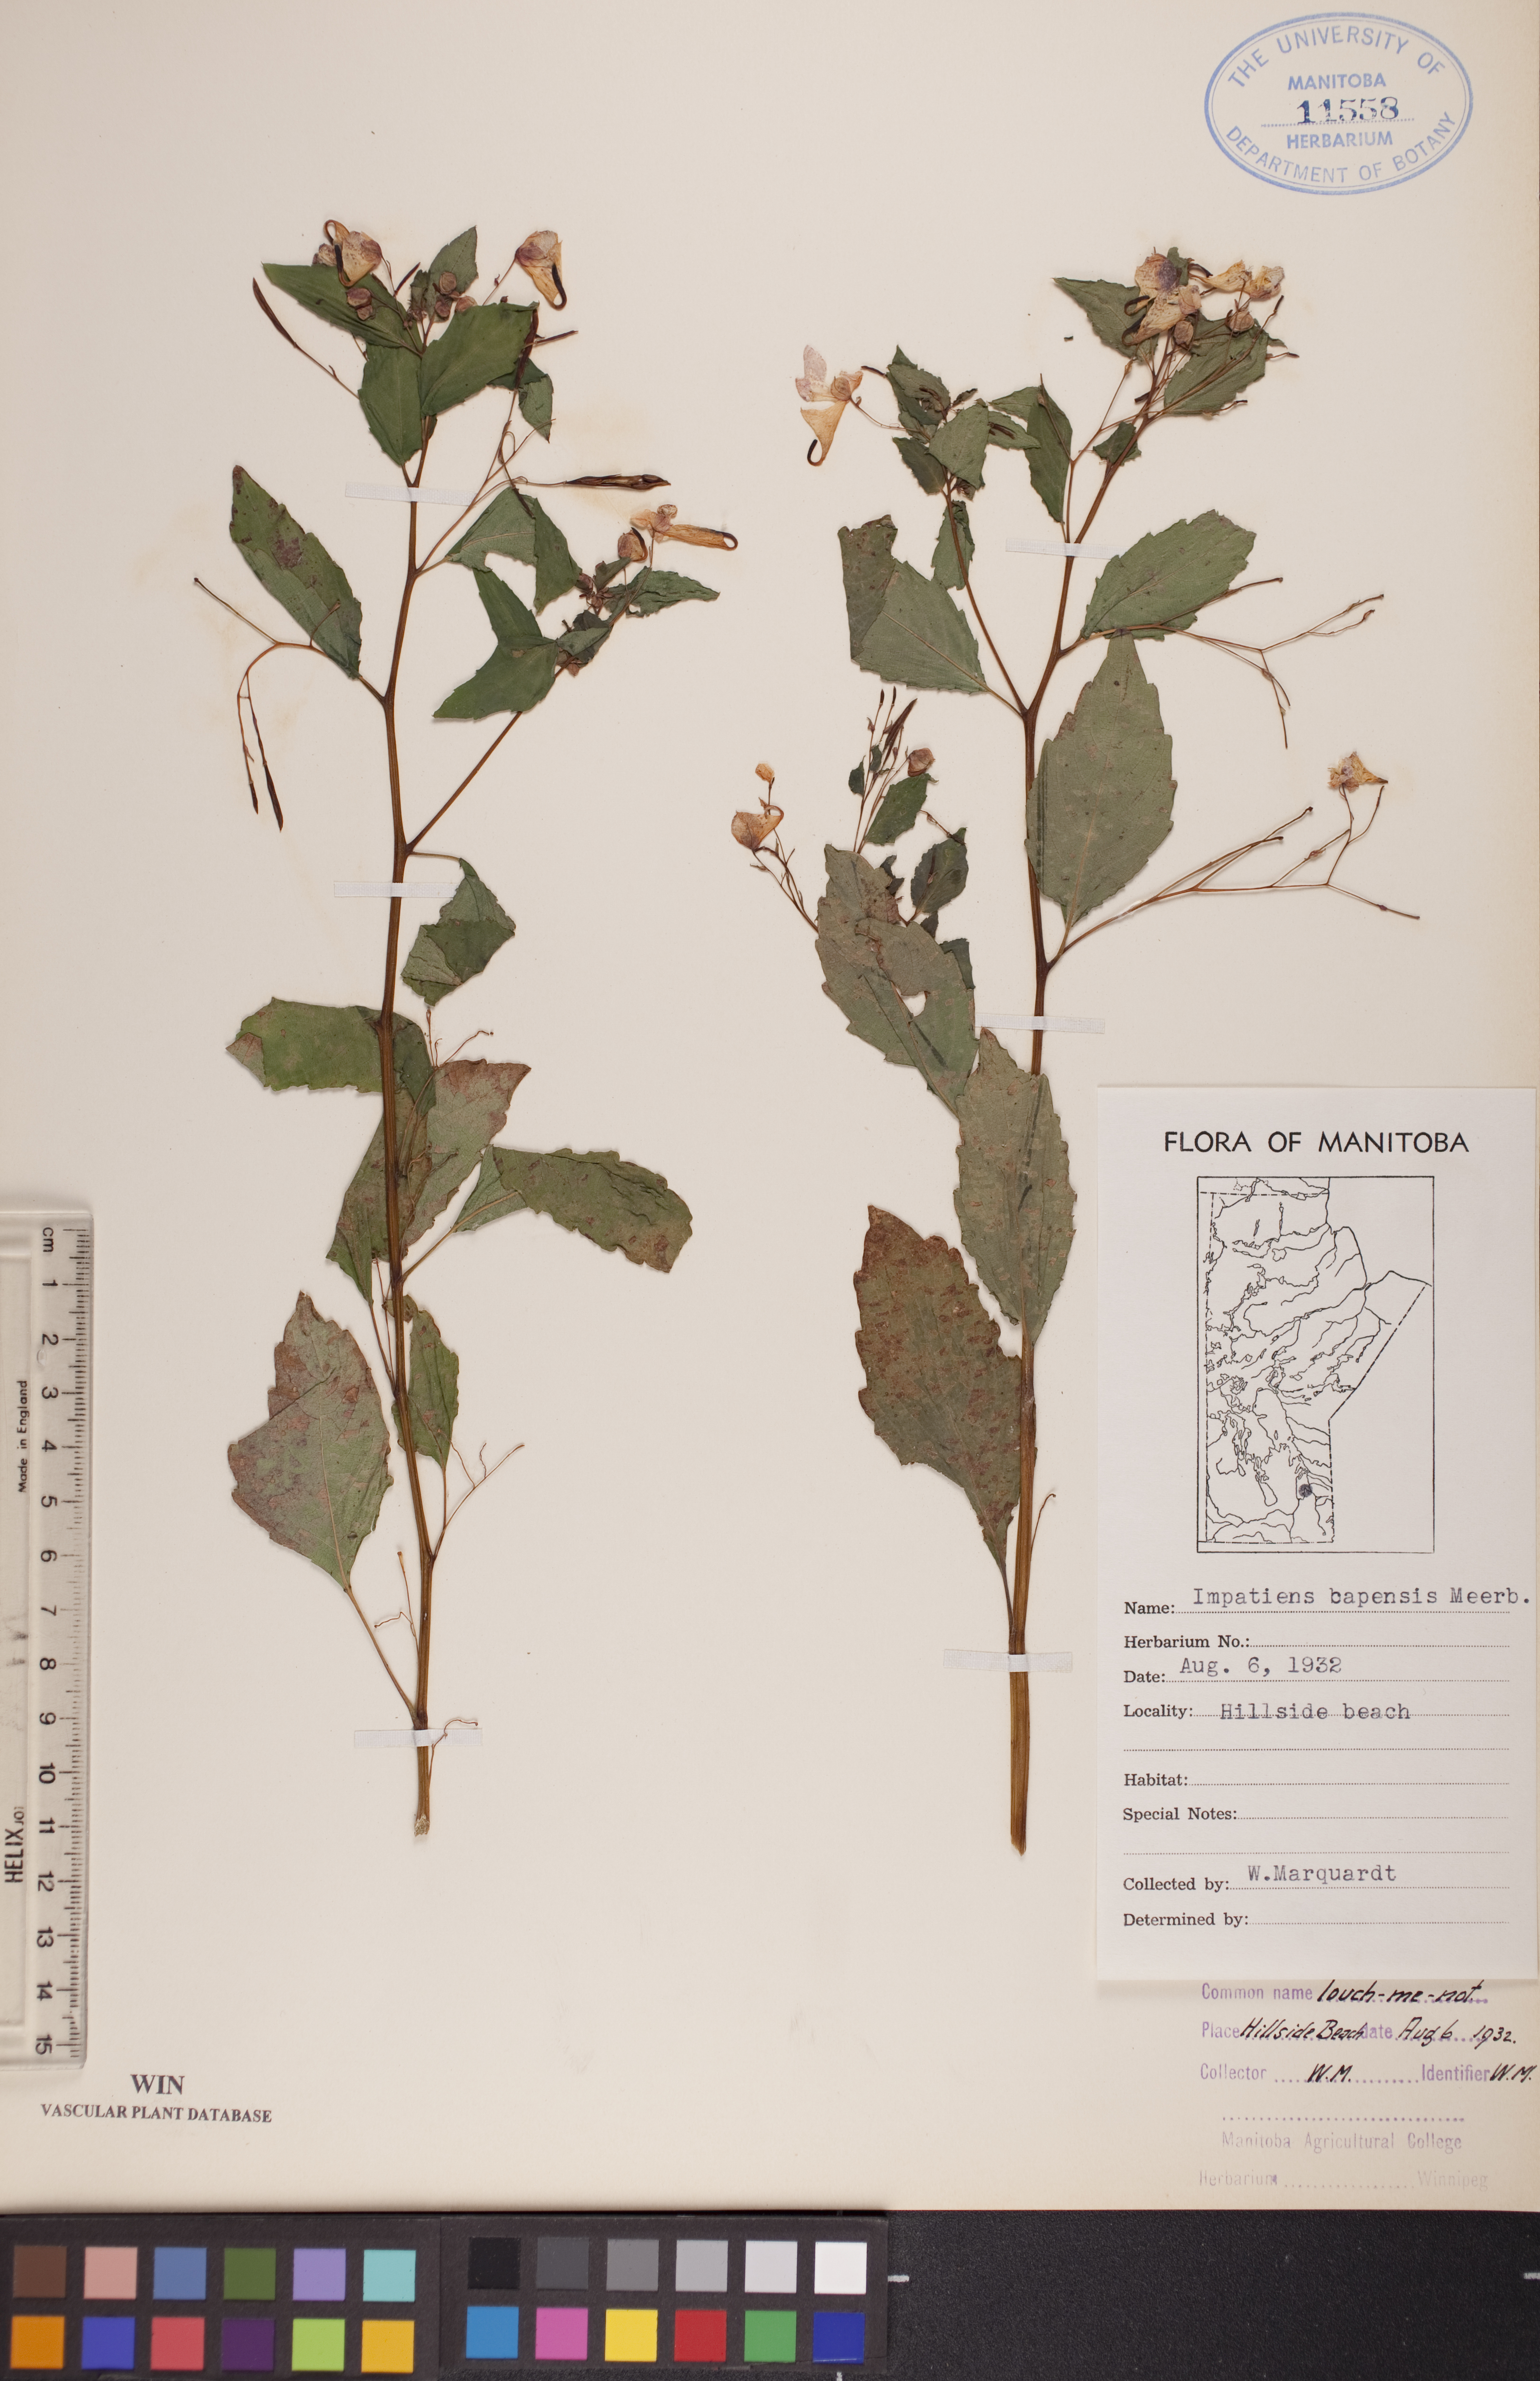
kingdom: Plantae
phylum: Tracheophyta
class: Magnoliopsida
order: Ericales
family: Balsaminaceae
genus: Impatiens
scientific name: Impatiens capensis
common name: Orange balsam
